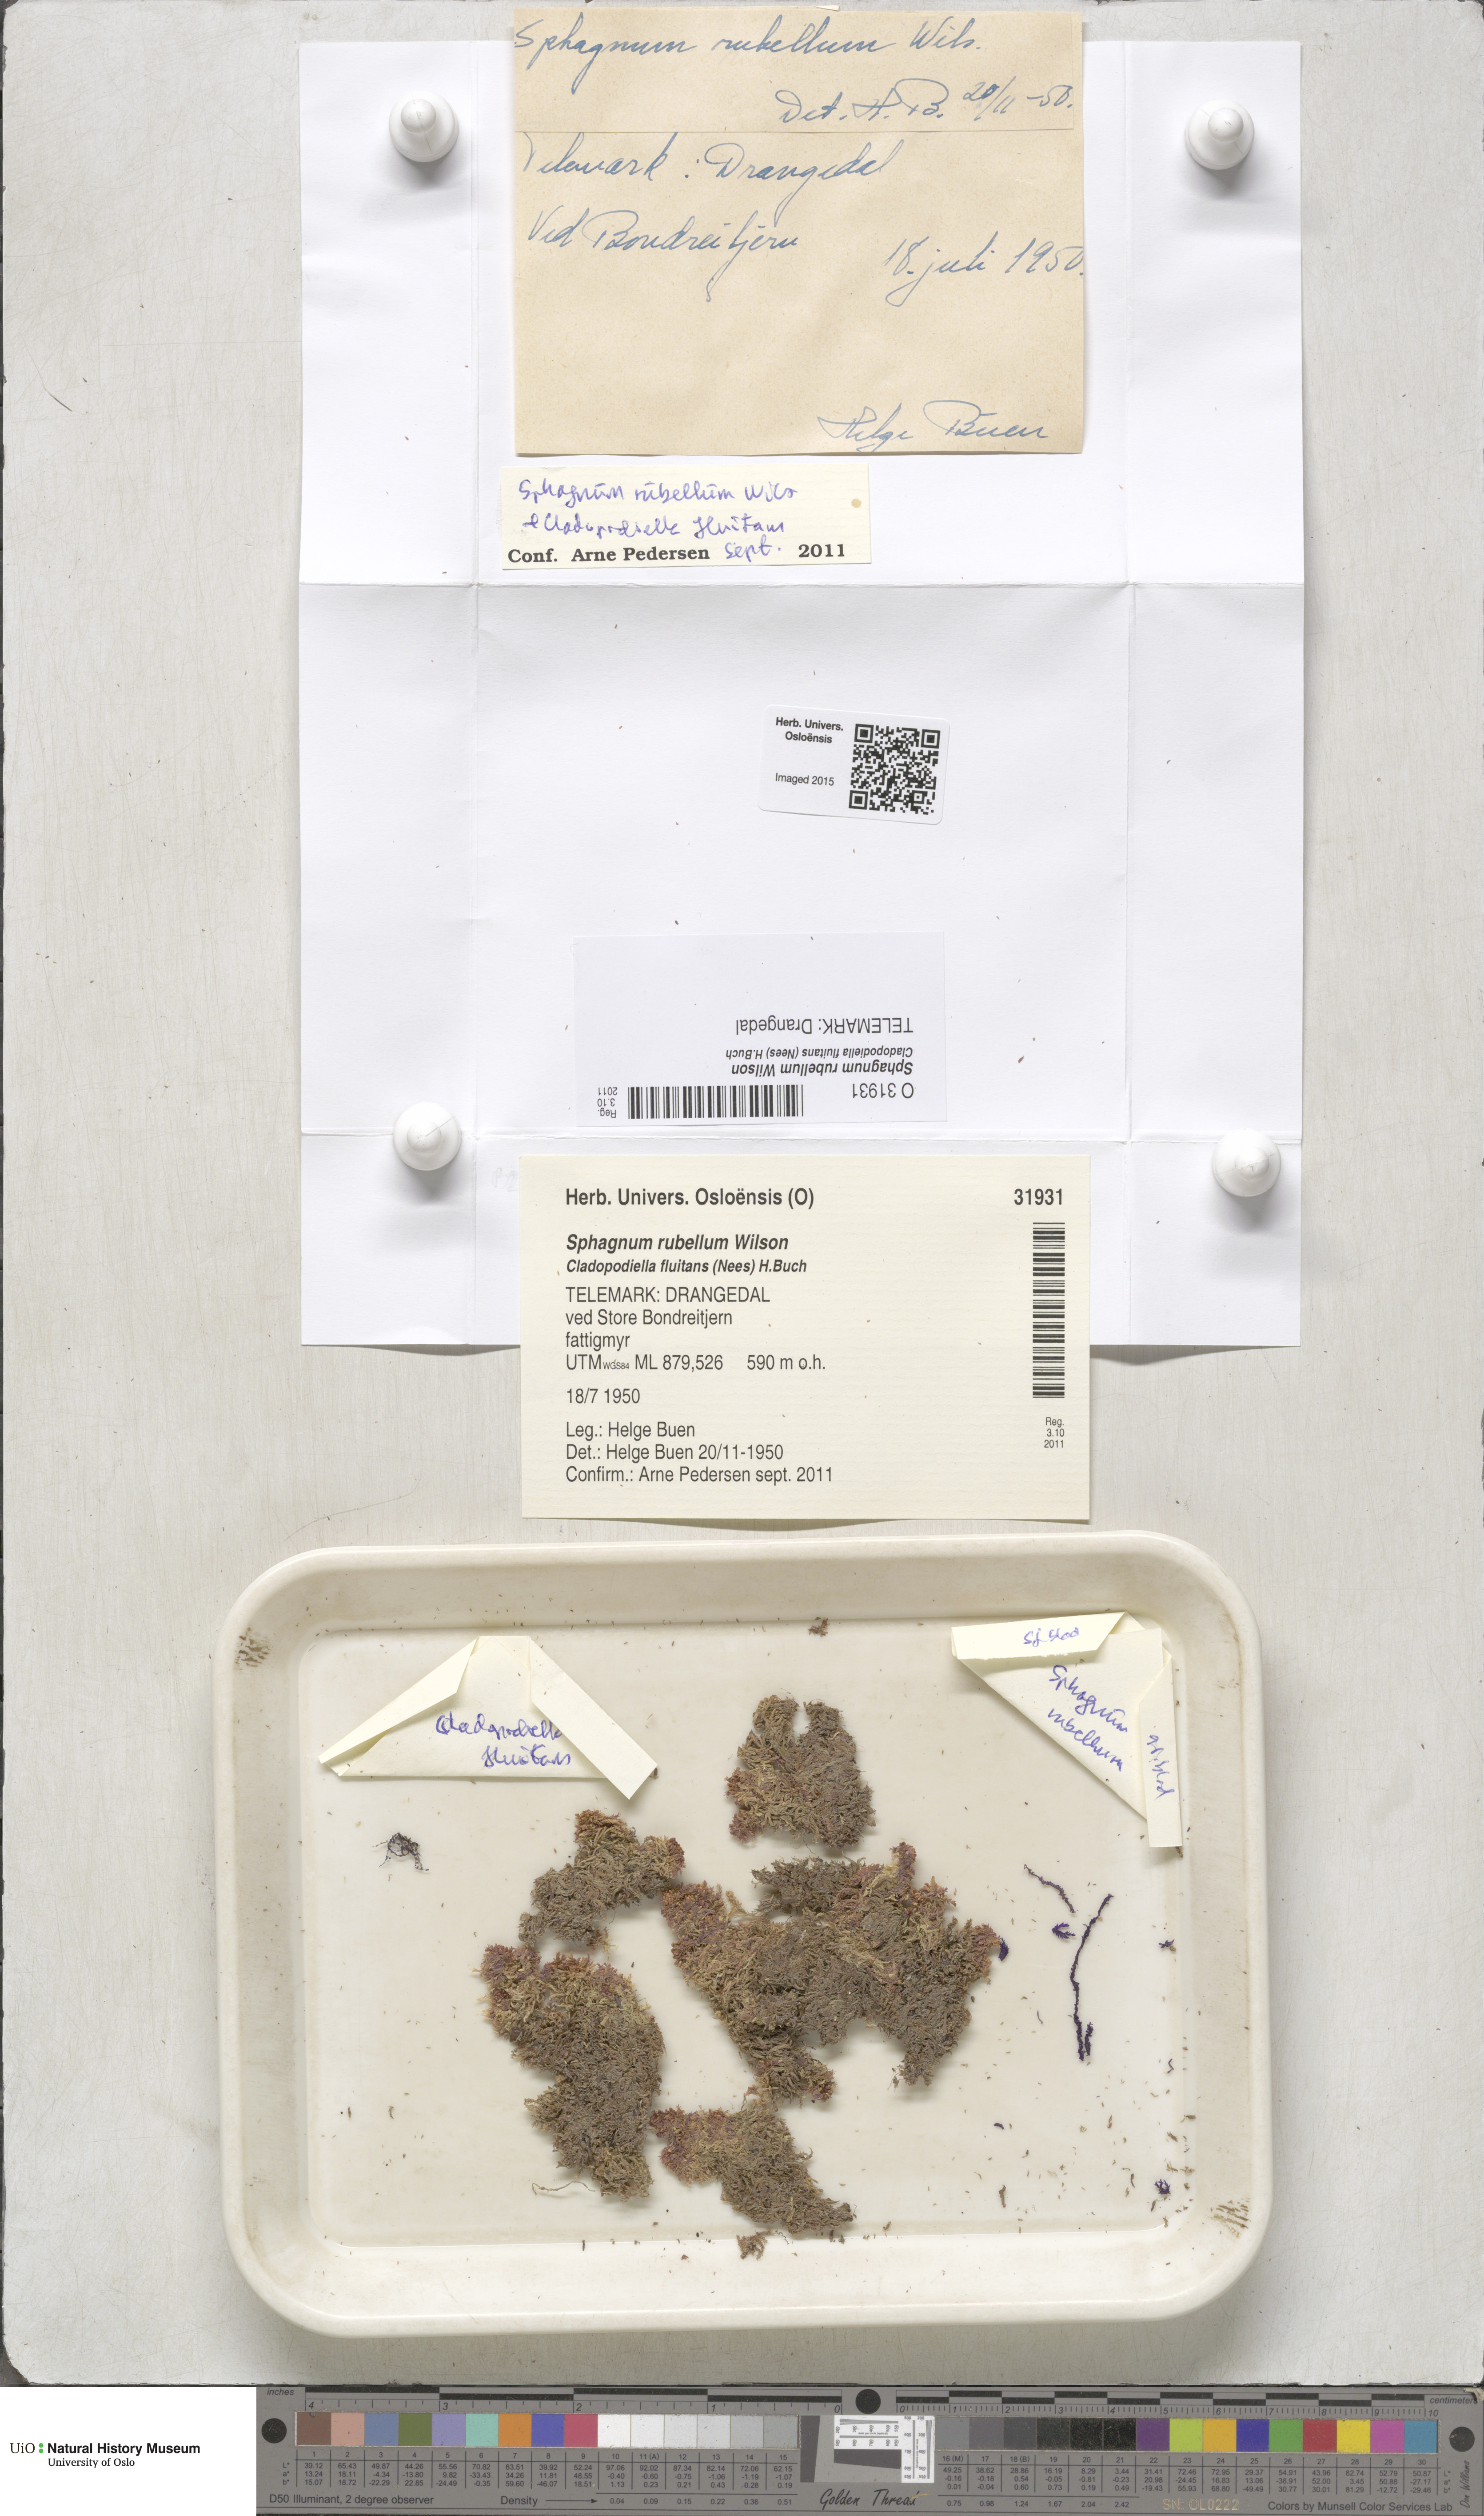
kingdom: Plantae
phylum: Bryophyta
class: Sphagnopsida
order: Sphagnales
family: Sphagnaceae
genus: Sphagnum
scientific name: Sphagnum rubellum
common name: Red peat moss
